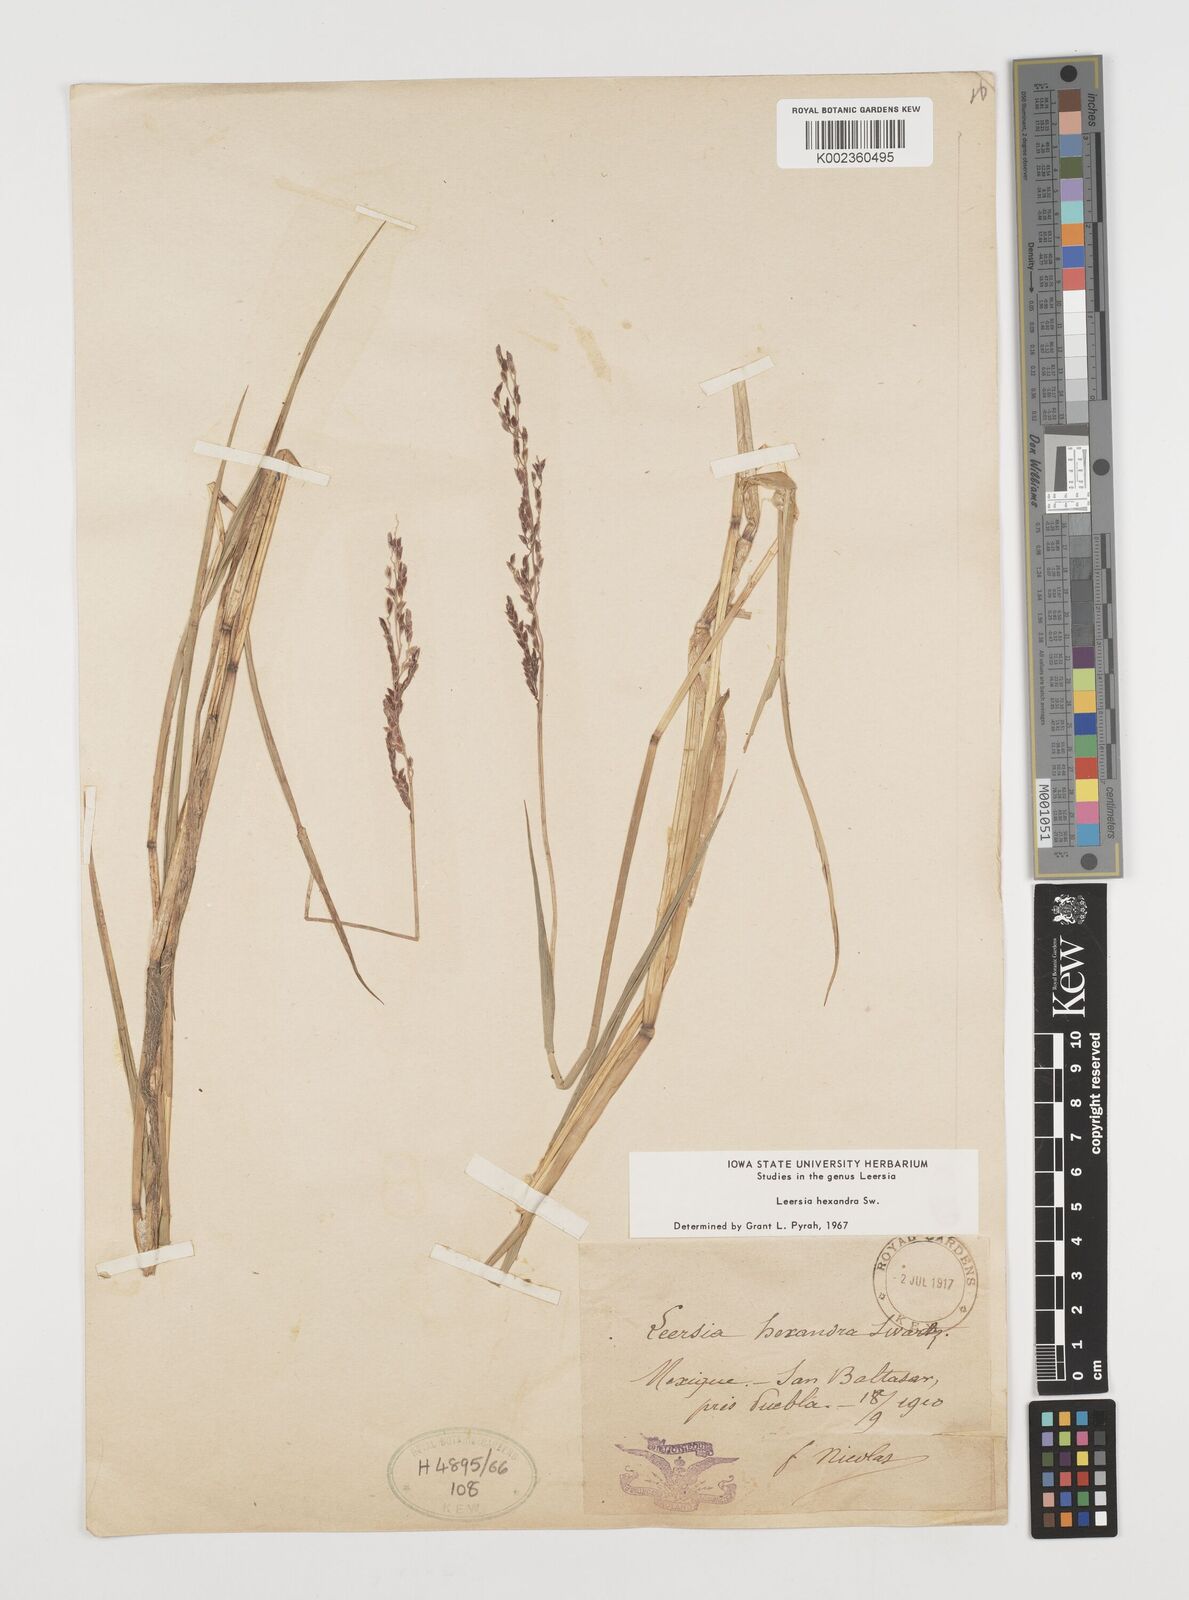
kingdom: Plantae
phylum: Tracheophyta
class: Liliopsida
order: Poales
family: Poaceae
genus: Leersia
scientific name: Leersia hexandra
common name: Southern cut grass
